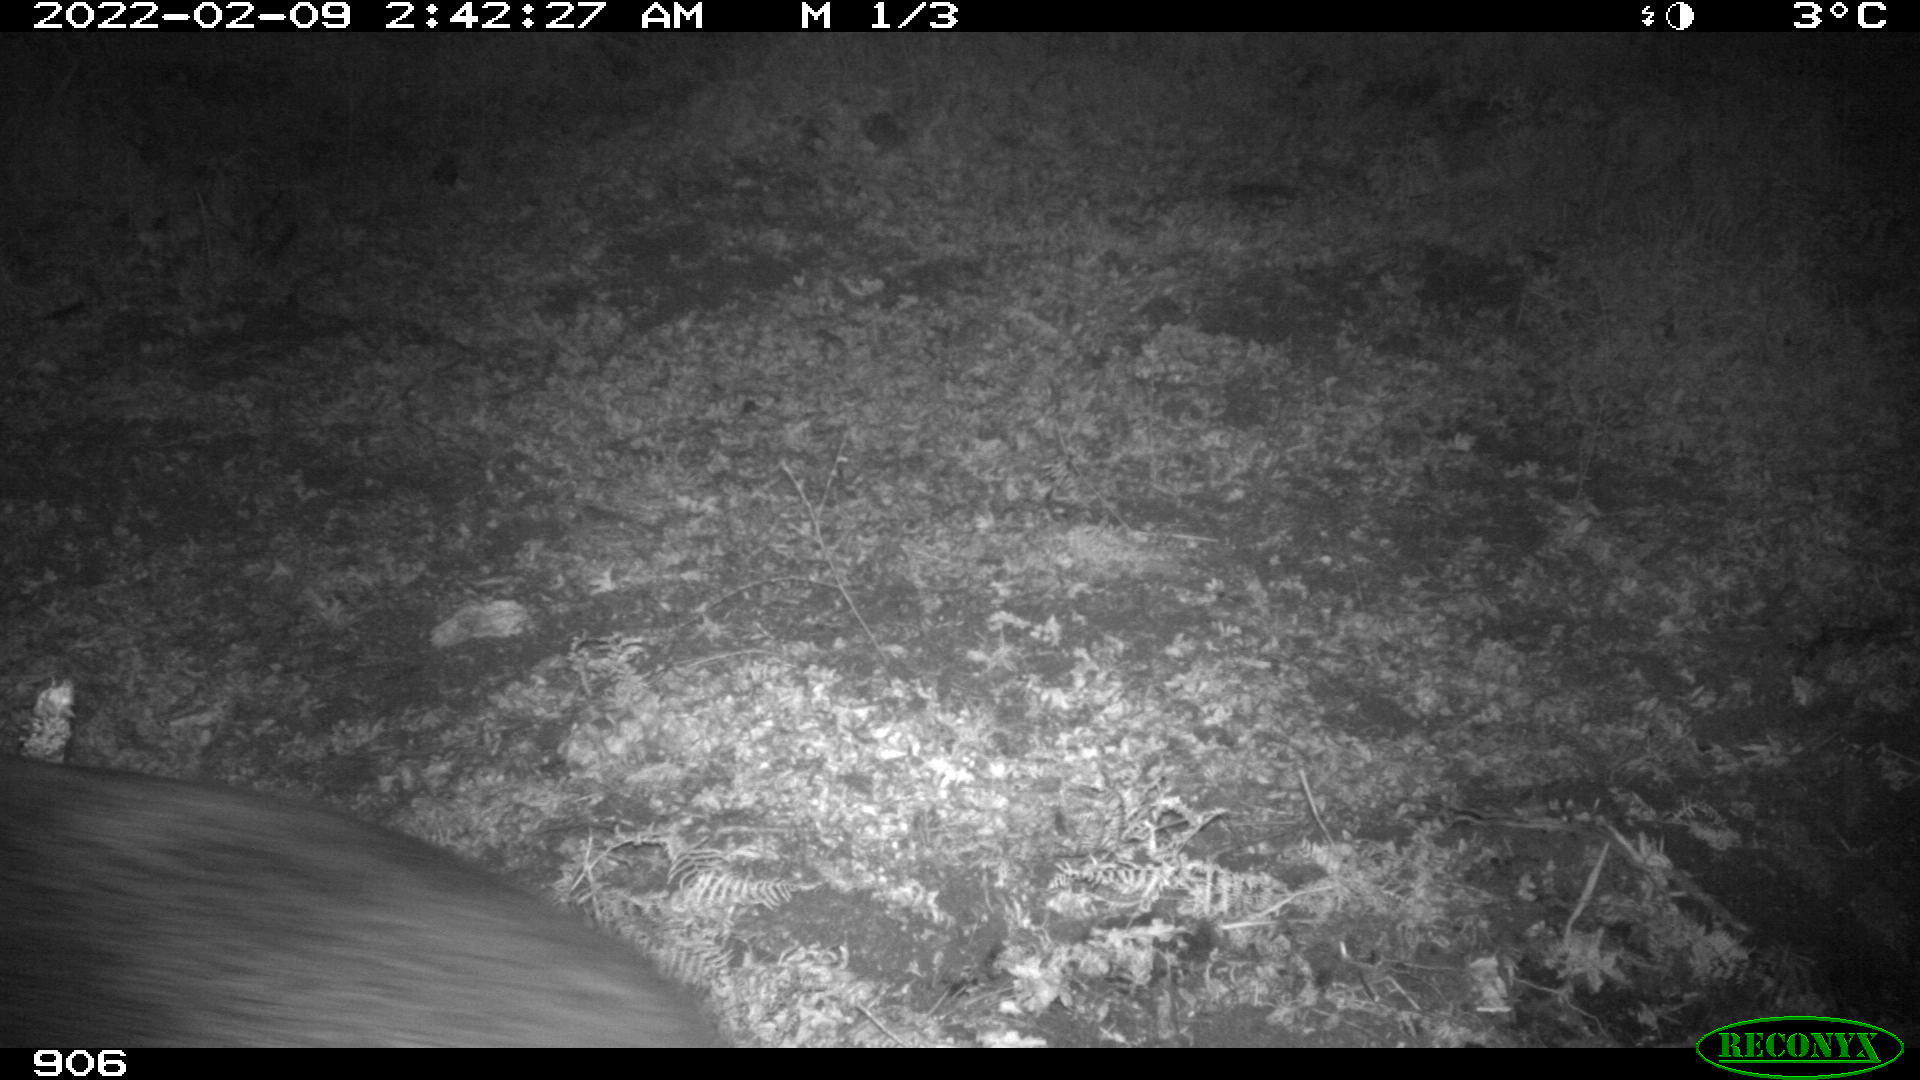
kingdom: Animalia
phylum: Chordata
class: Mammalia
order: Artiodactyla
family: Suidae
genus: Sus
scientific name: Sus scrofa
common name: Wild boar
